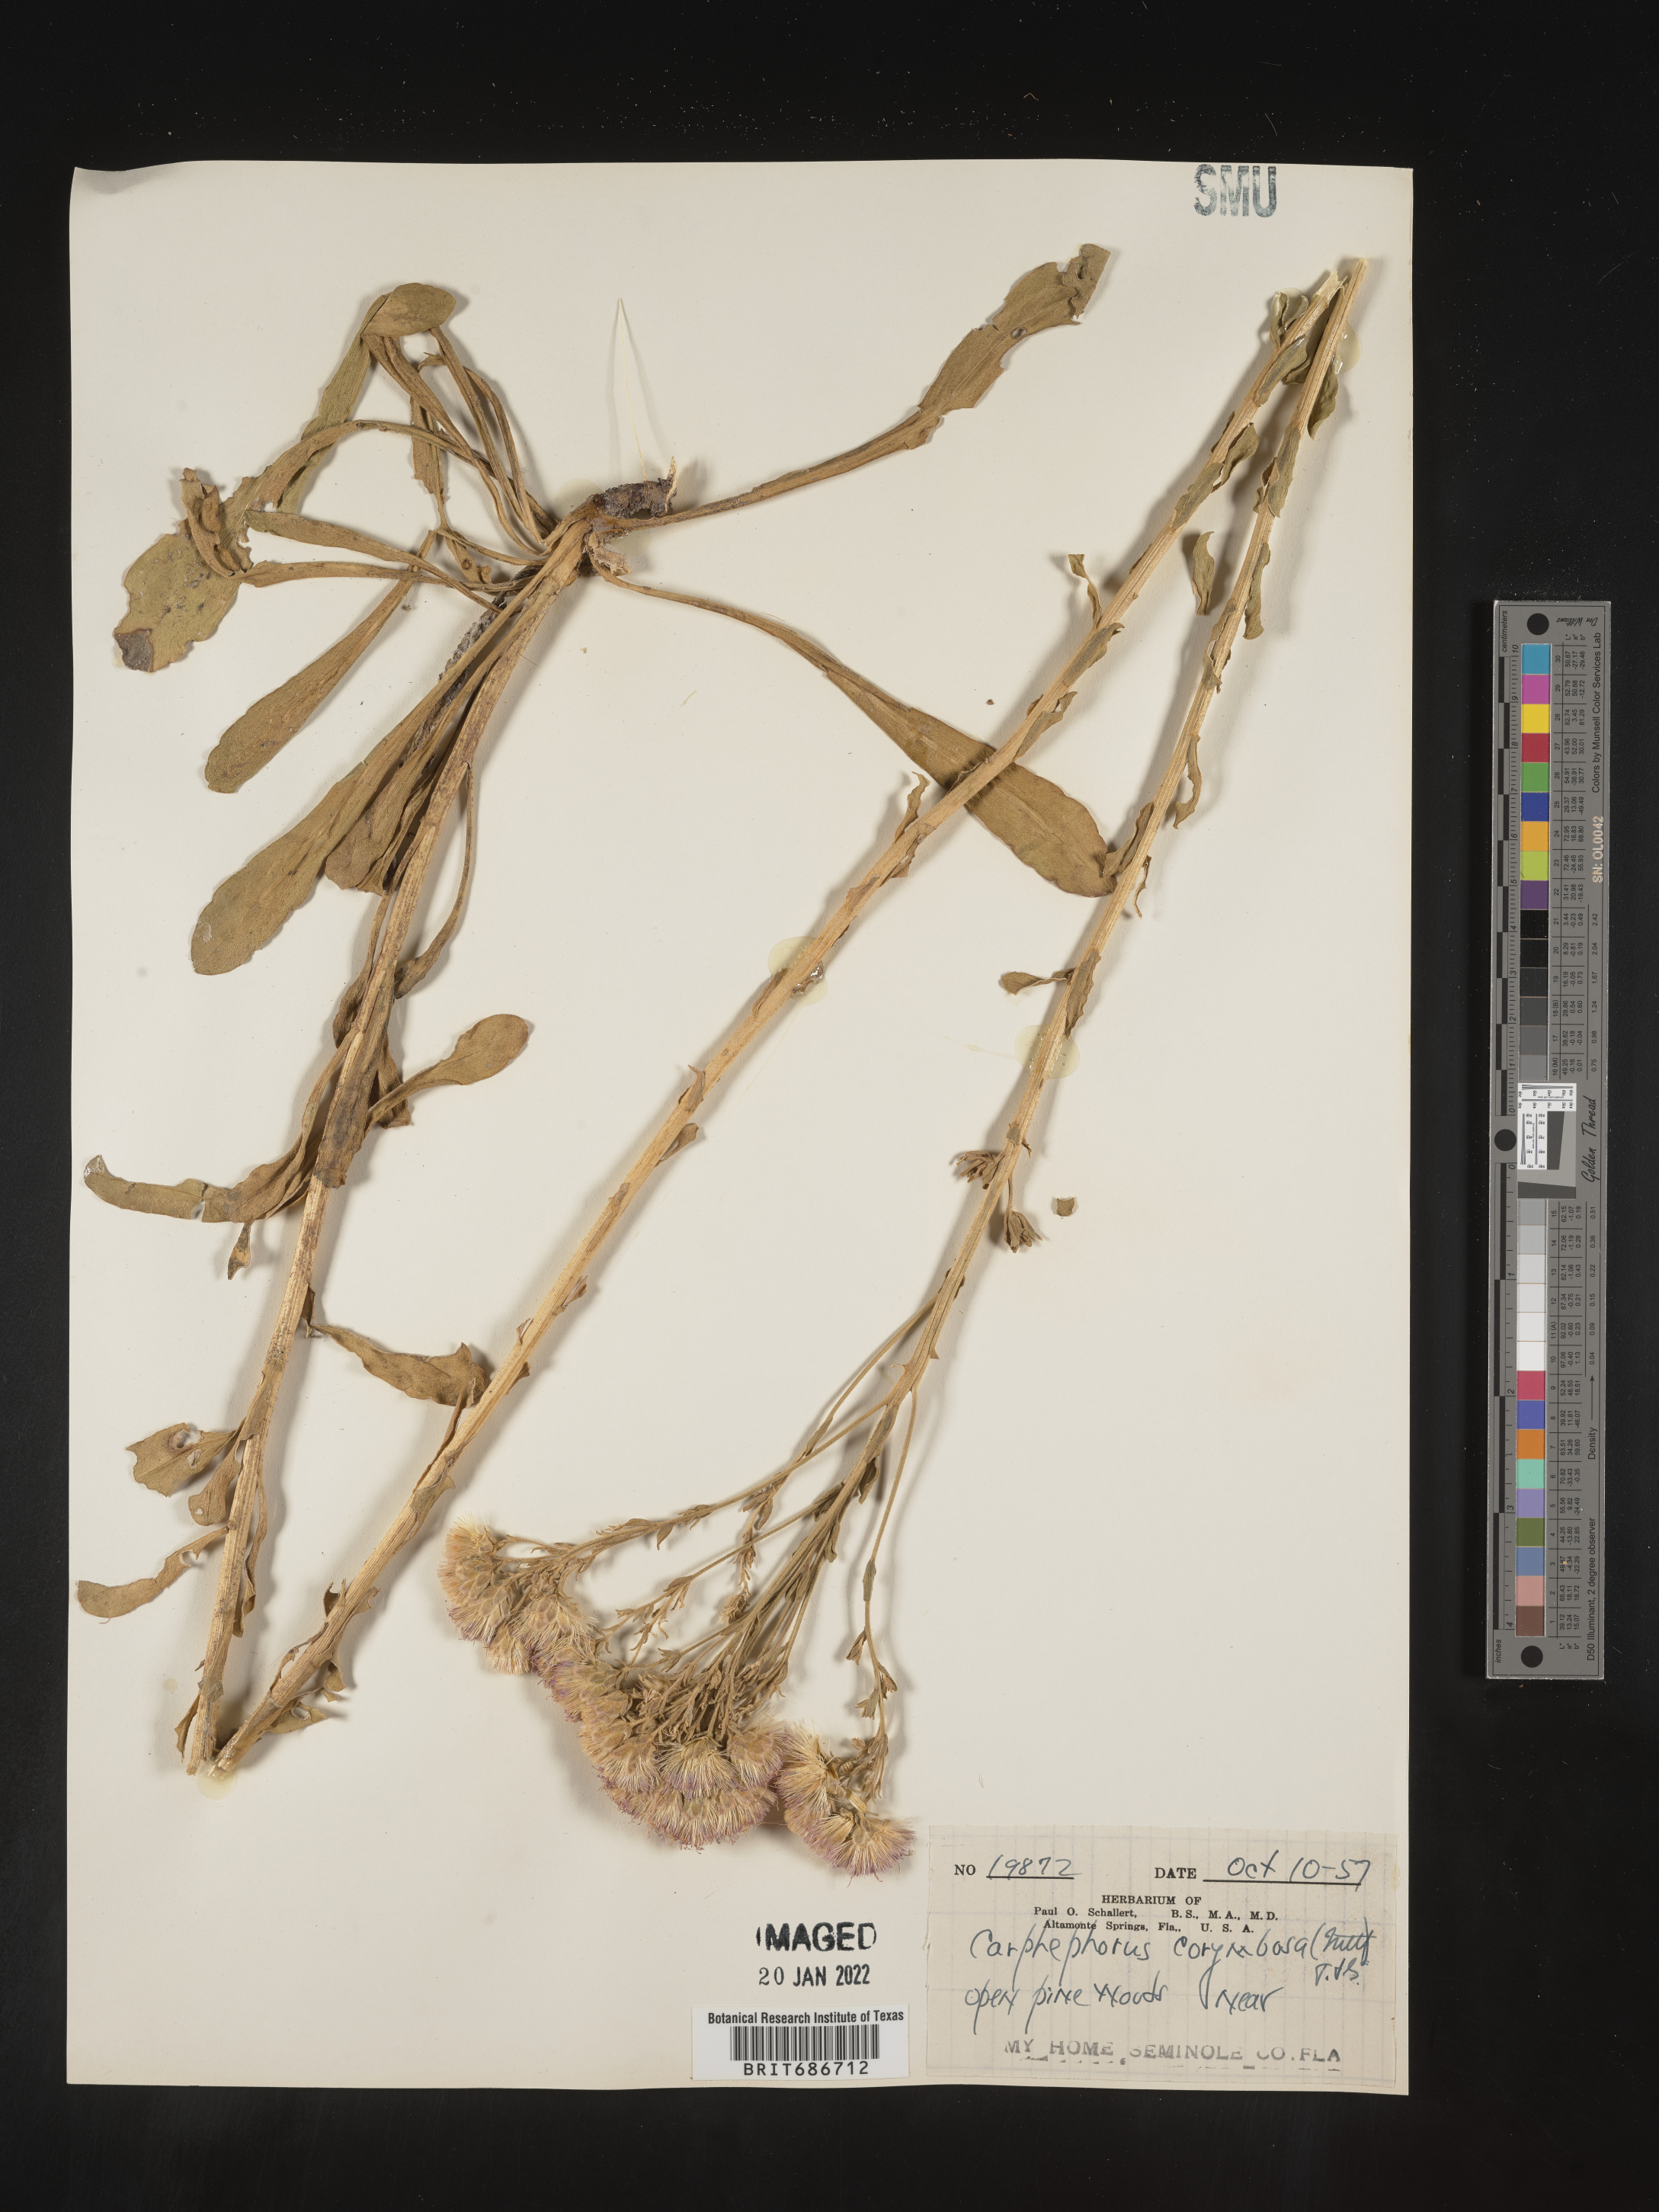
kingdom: Plantae
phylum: Tracheophyta
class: Magnoliopsida
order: Asterales
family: Asteraceae
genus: Carphephorus
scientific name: Carphephorus corymbosus
